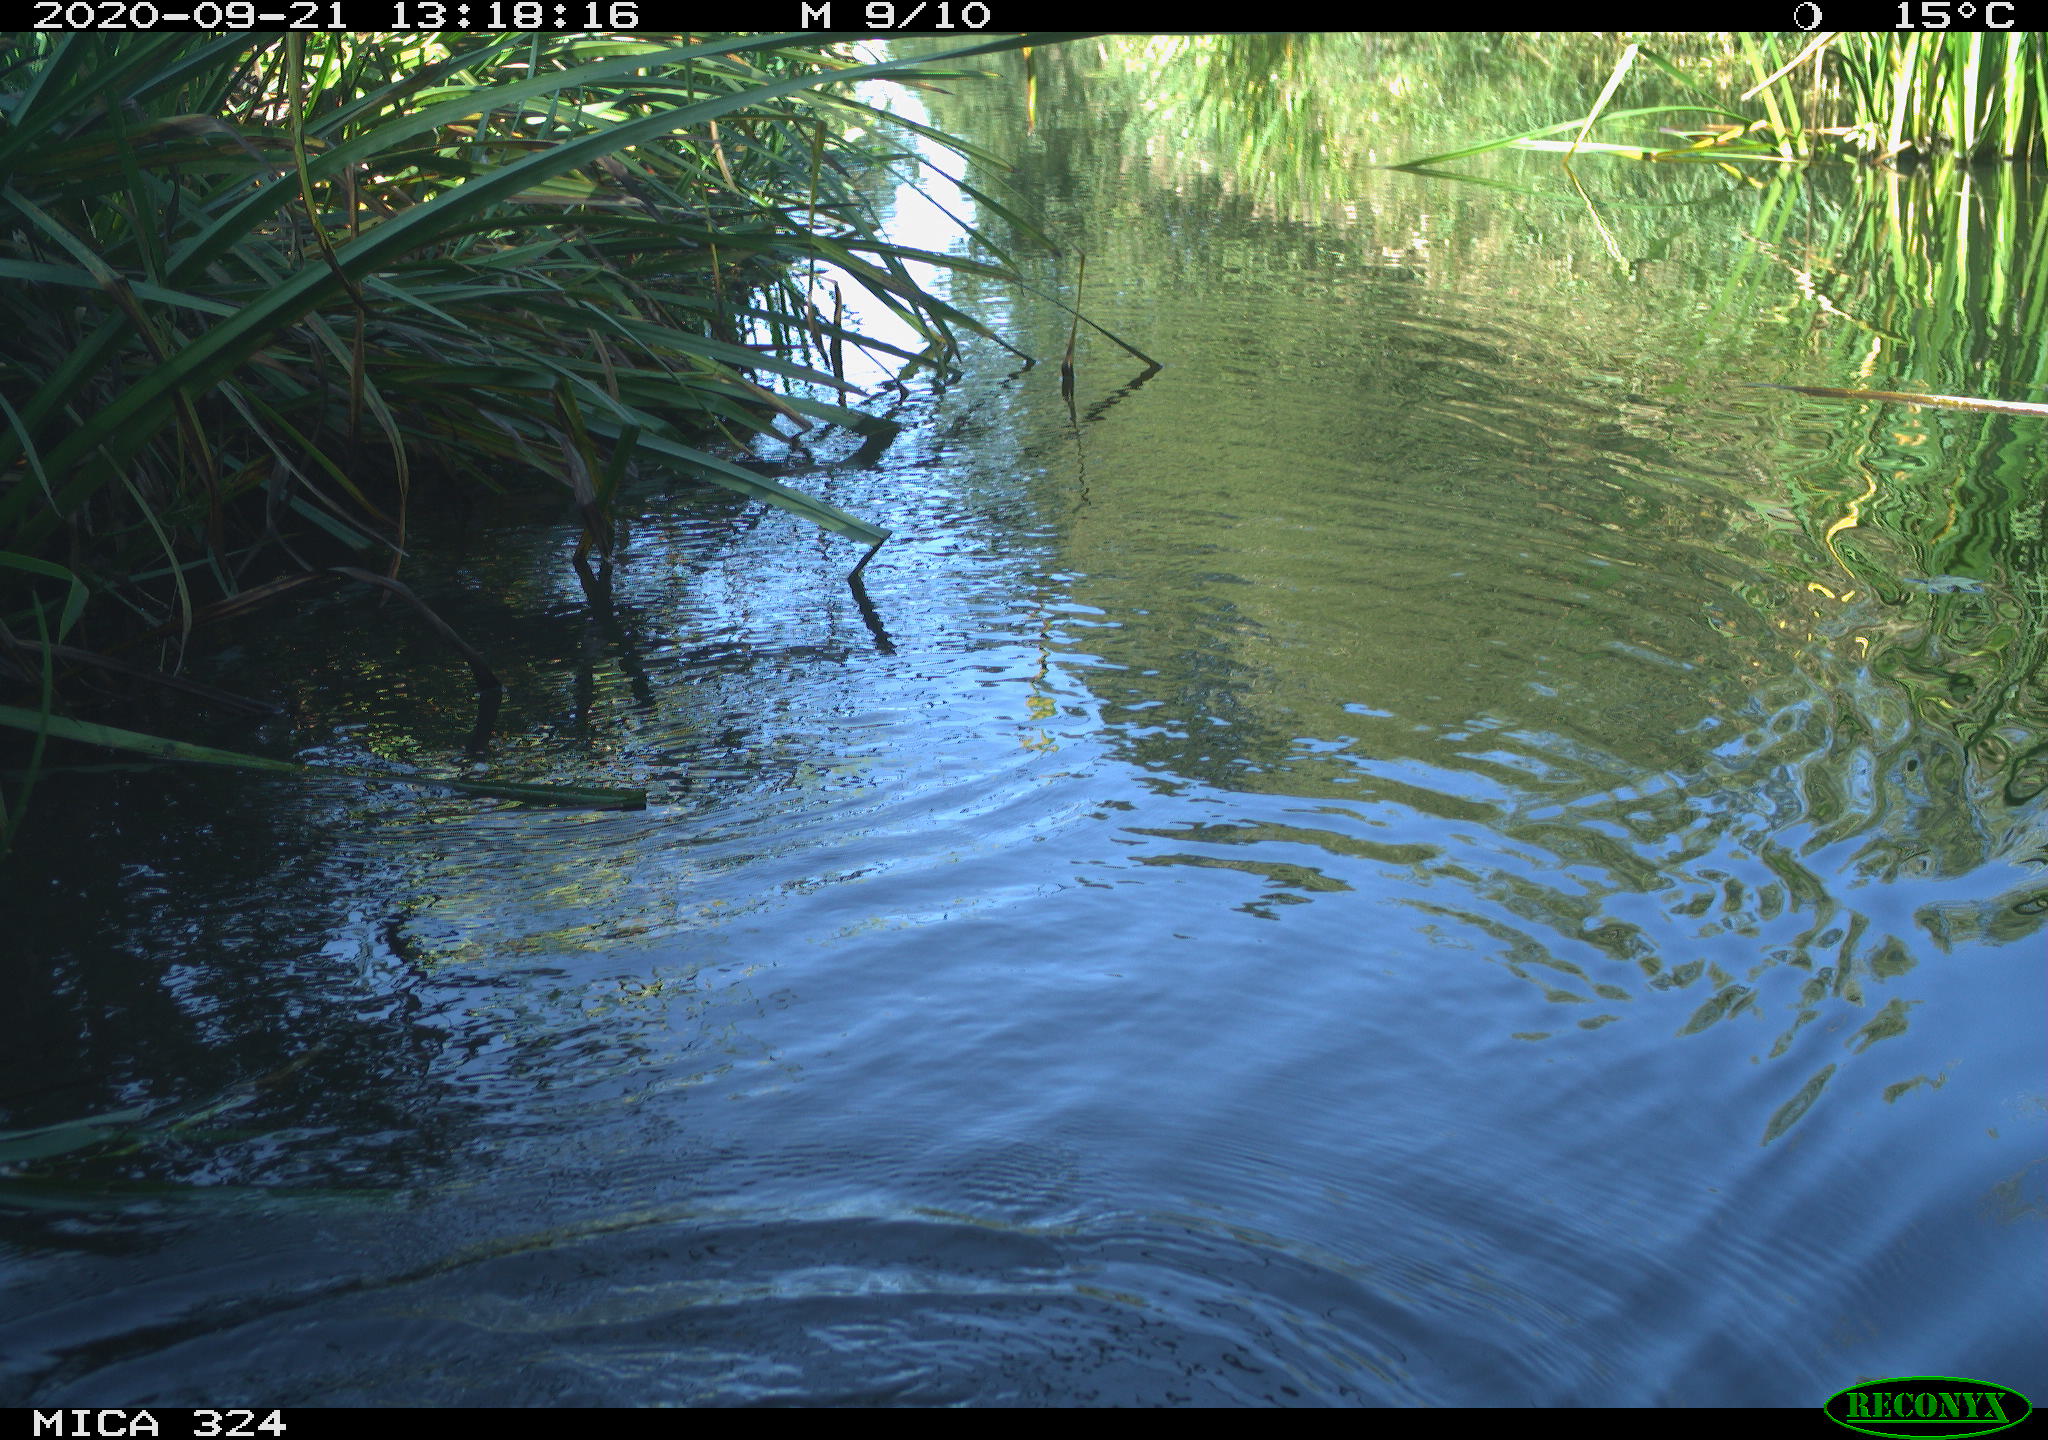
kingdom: Animalia
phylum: Chordata
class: Mammalia
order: Rodentia
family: Cricetidae
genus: Ondatra
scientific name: Ondatra zibethicus
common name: Muskrat
